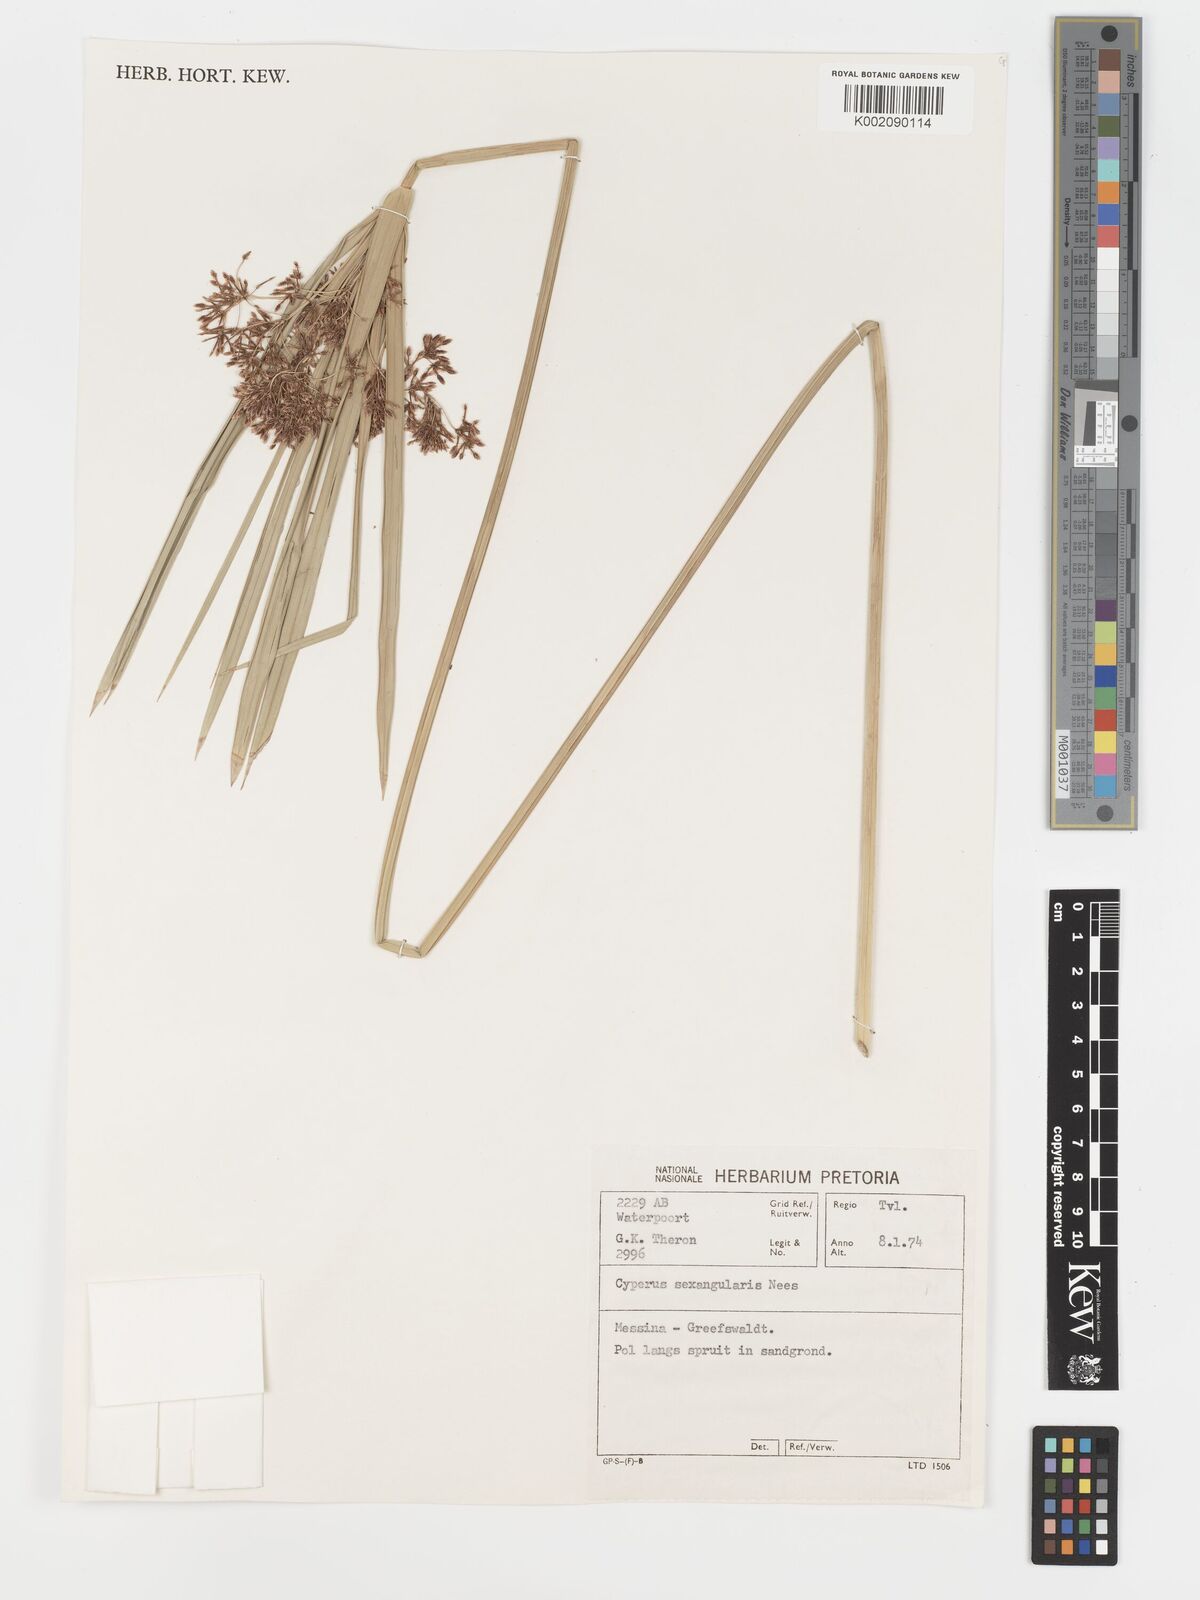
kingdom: Plantae
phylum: Tracheophyta
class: Liliopsida
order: Poales
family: Cyperaceae
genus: Cyperus
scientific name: Cyperus sexangularis
